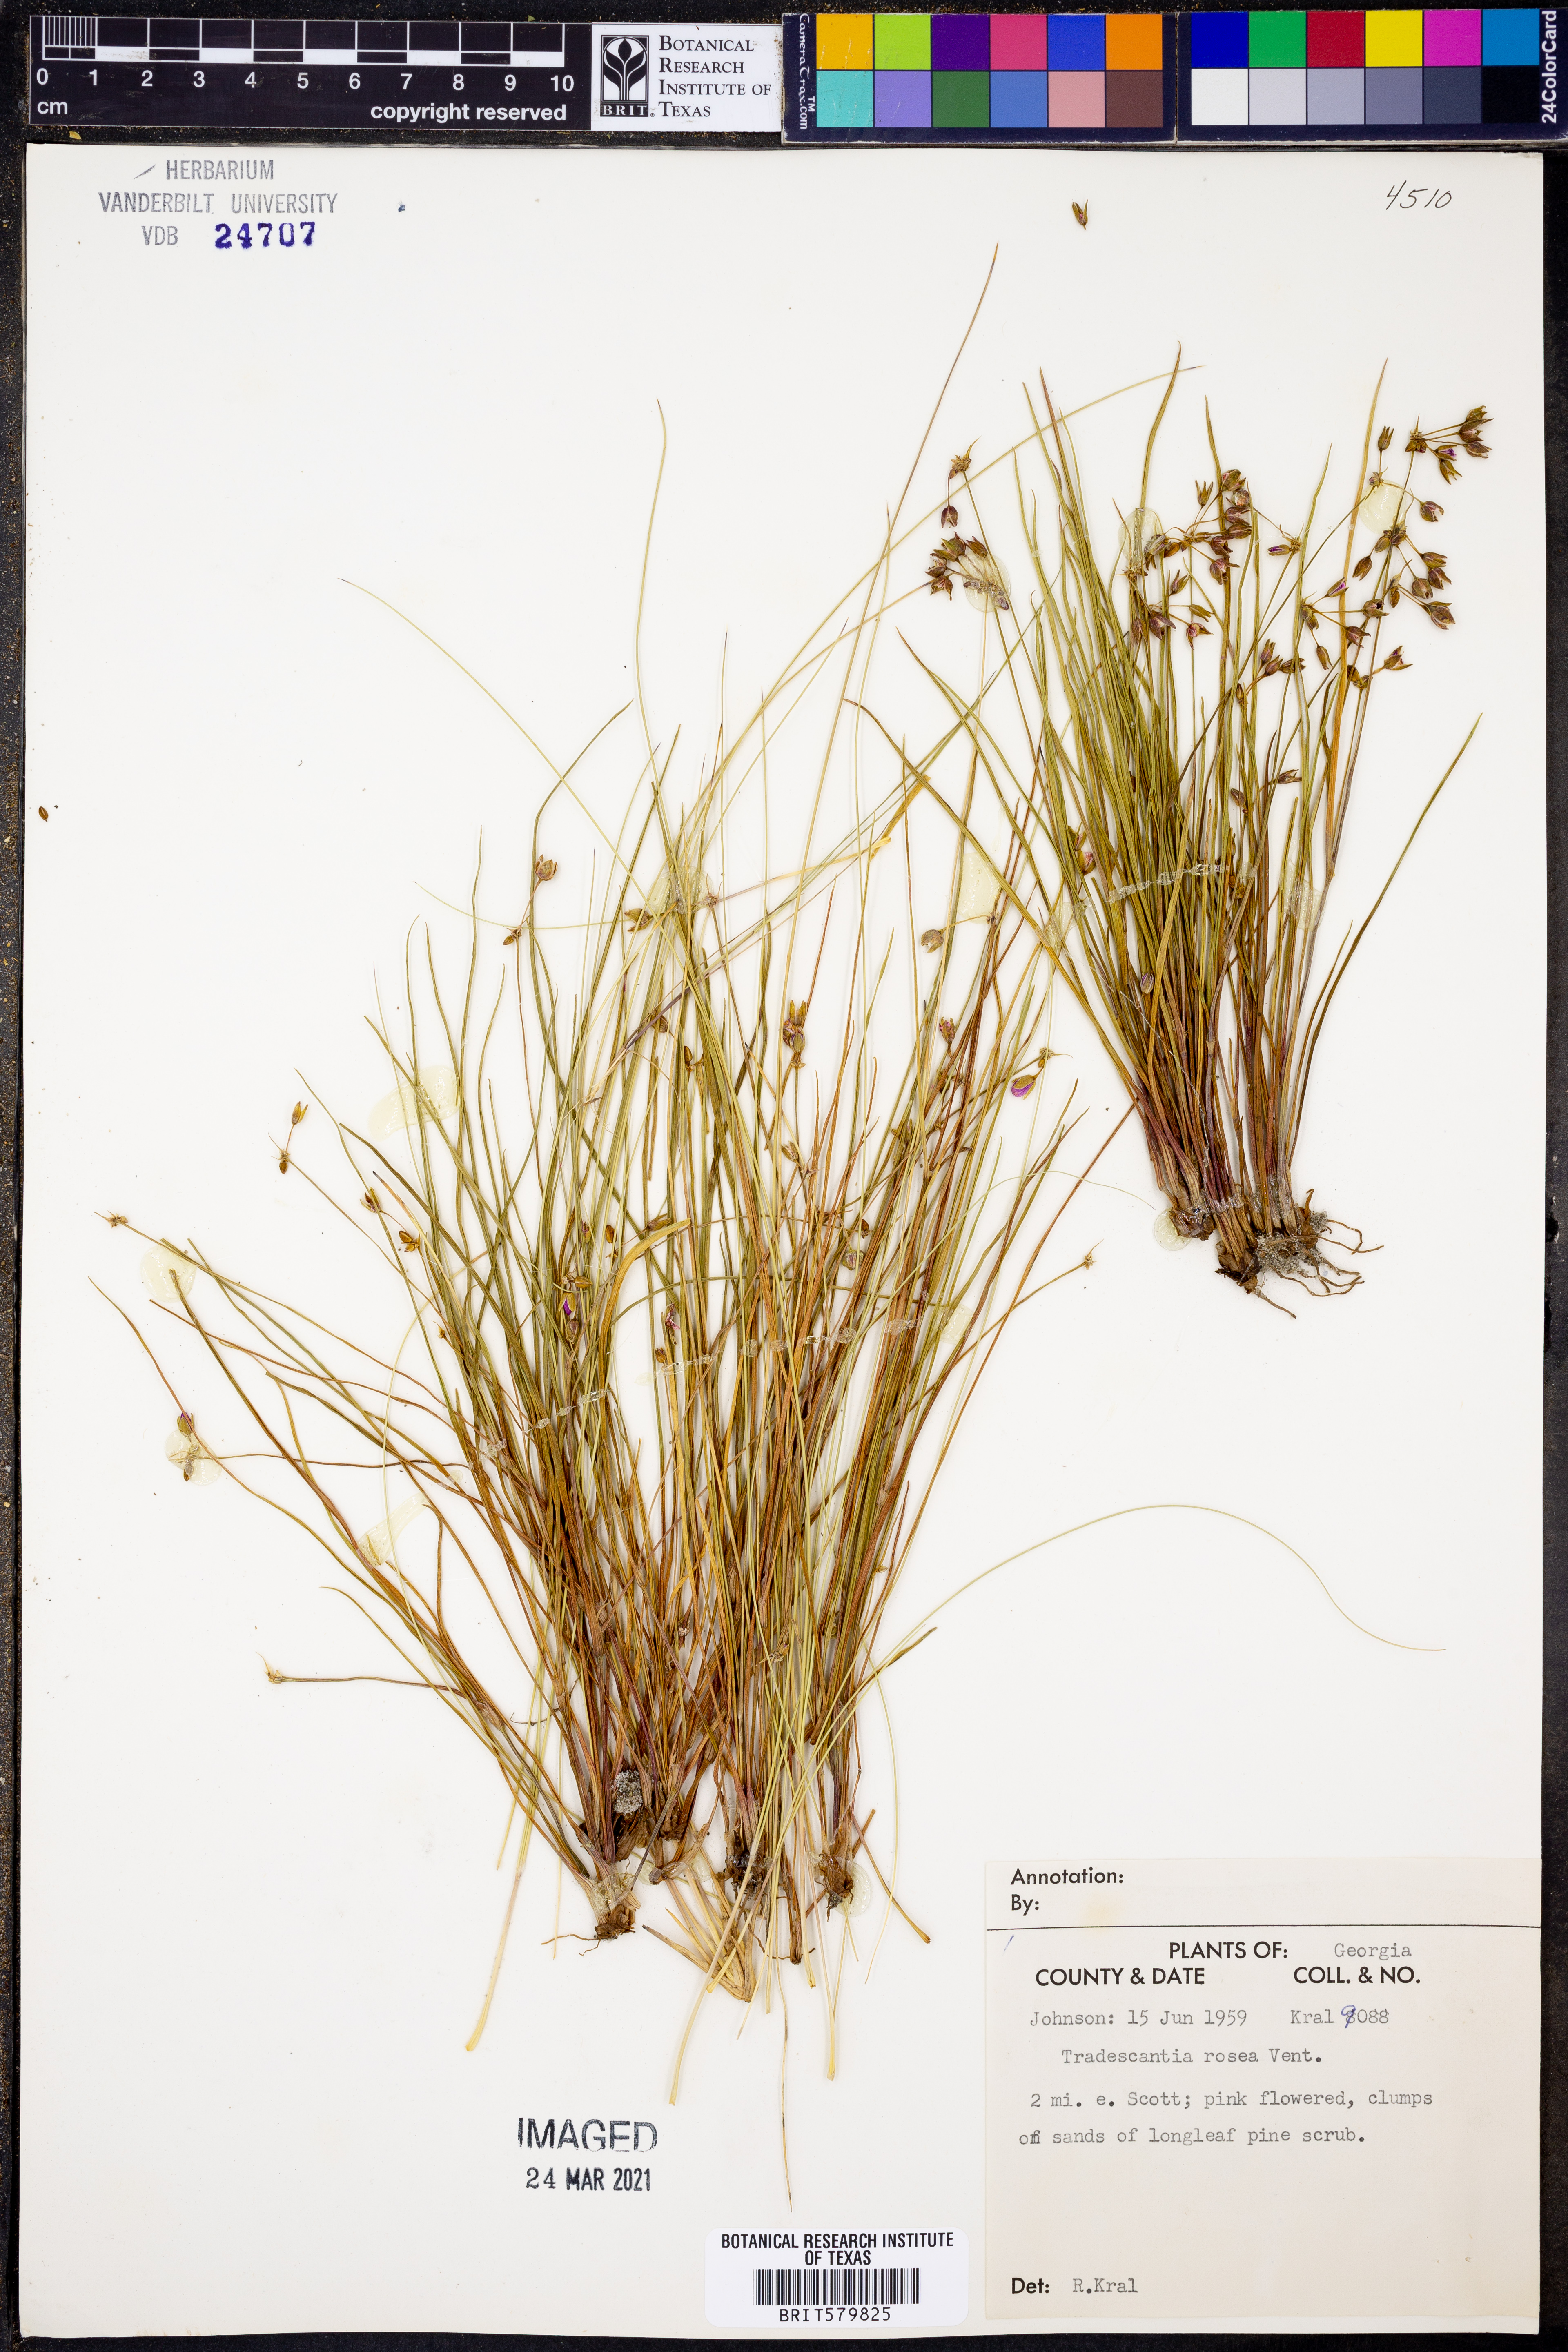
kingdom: Plantae
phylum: Tracheophyta
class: Liliopsida
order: Commelinales
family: Commelinaceae
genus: Callisia
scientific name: Callisia rosea
